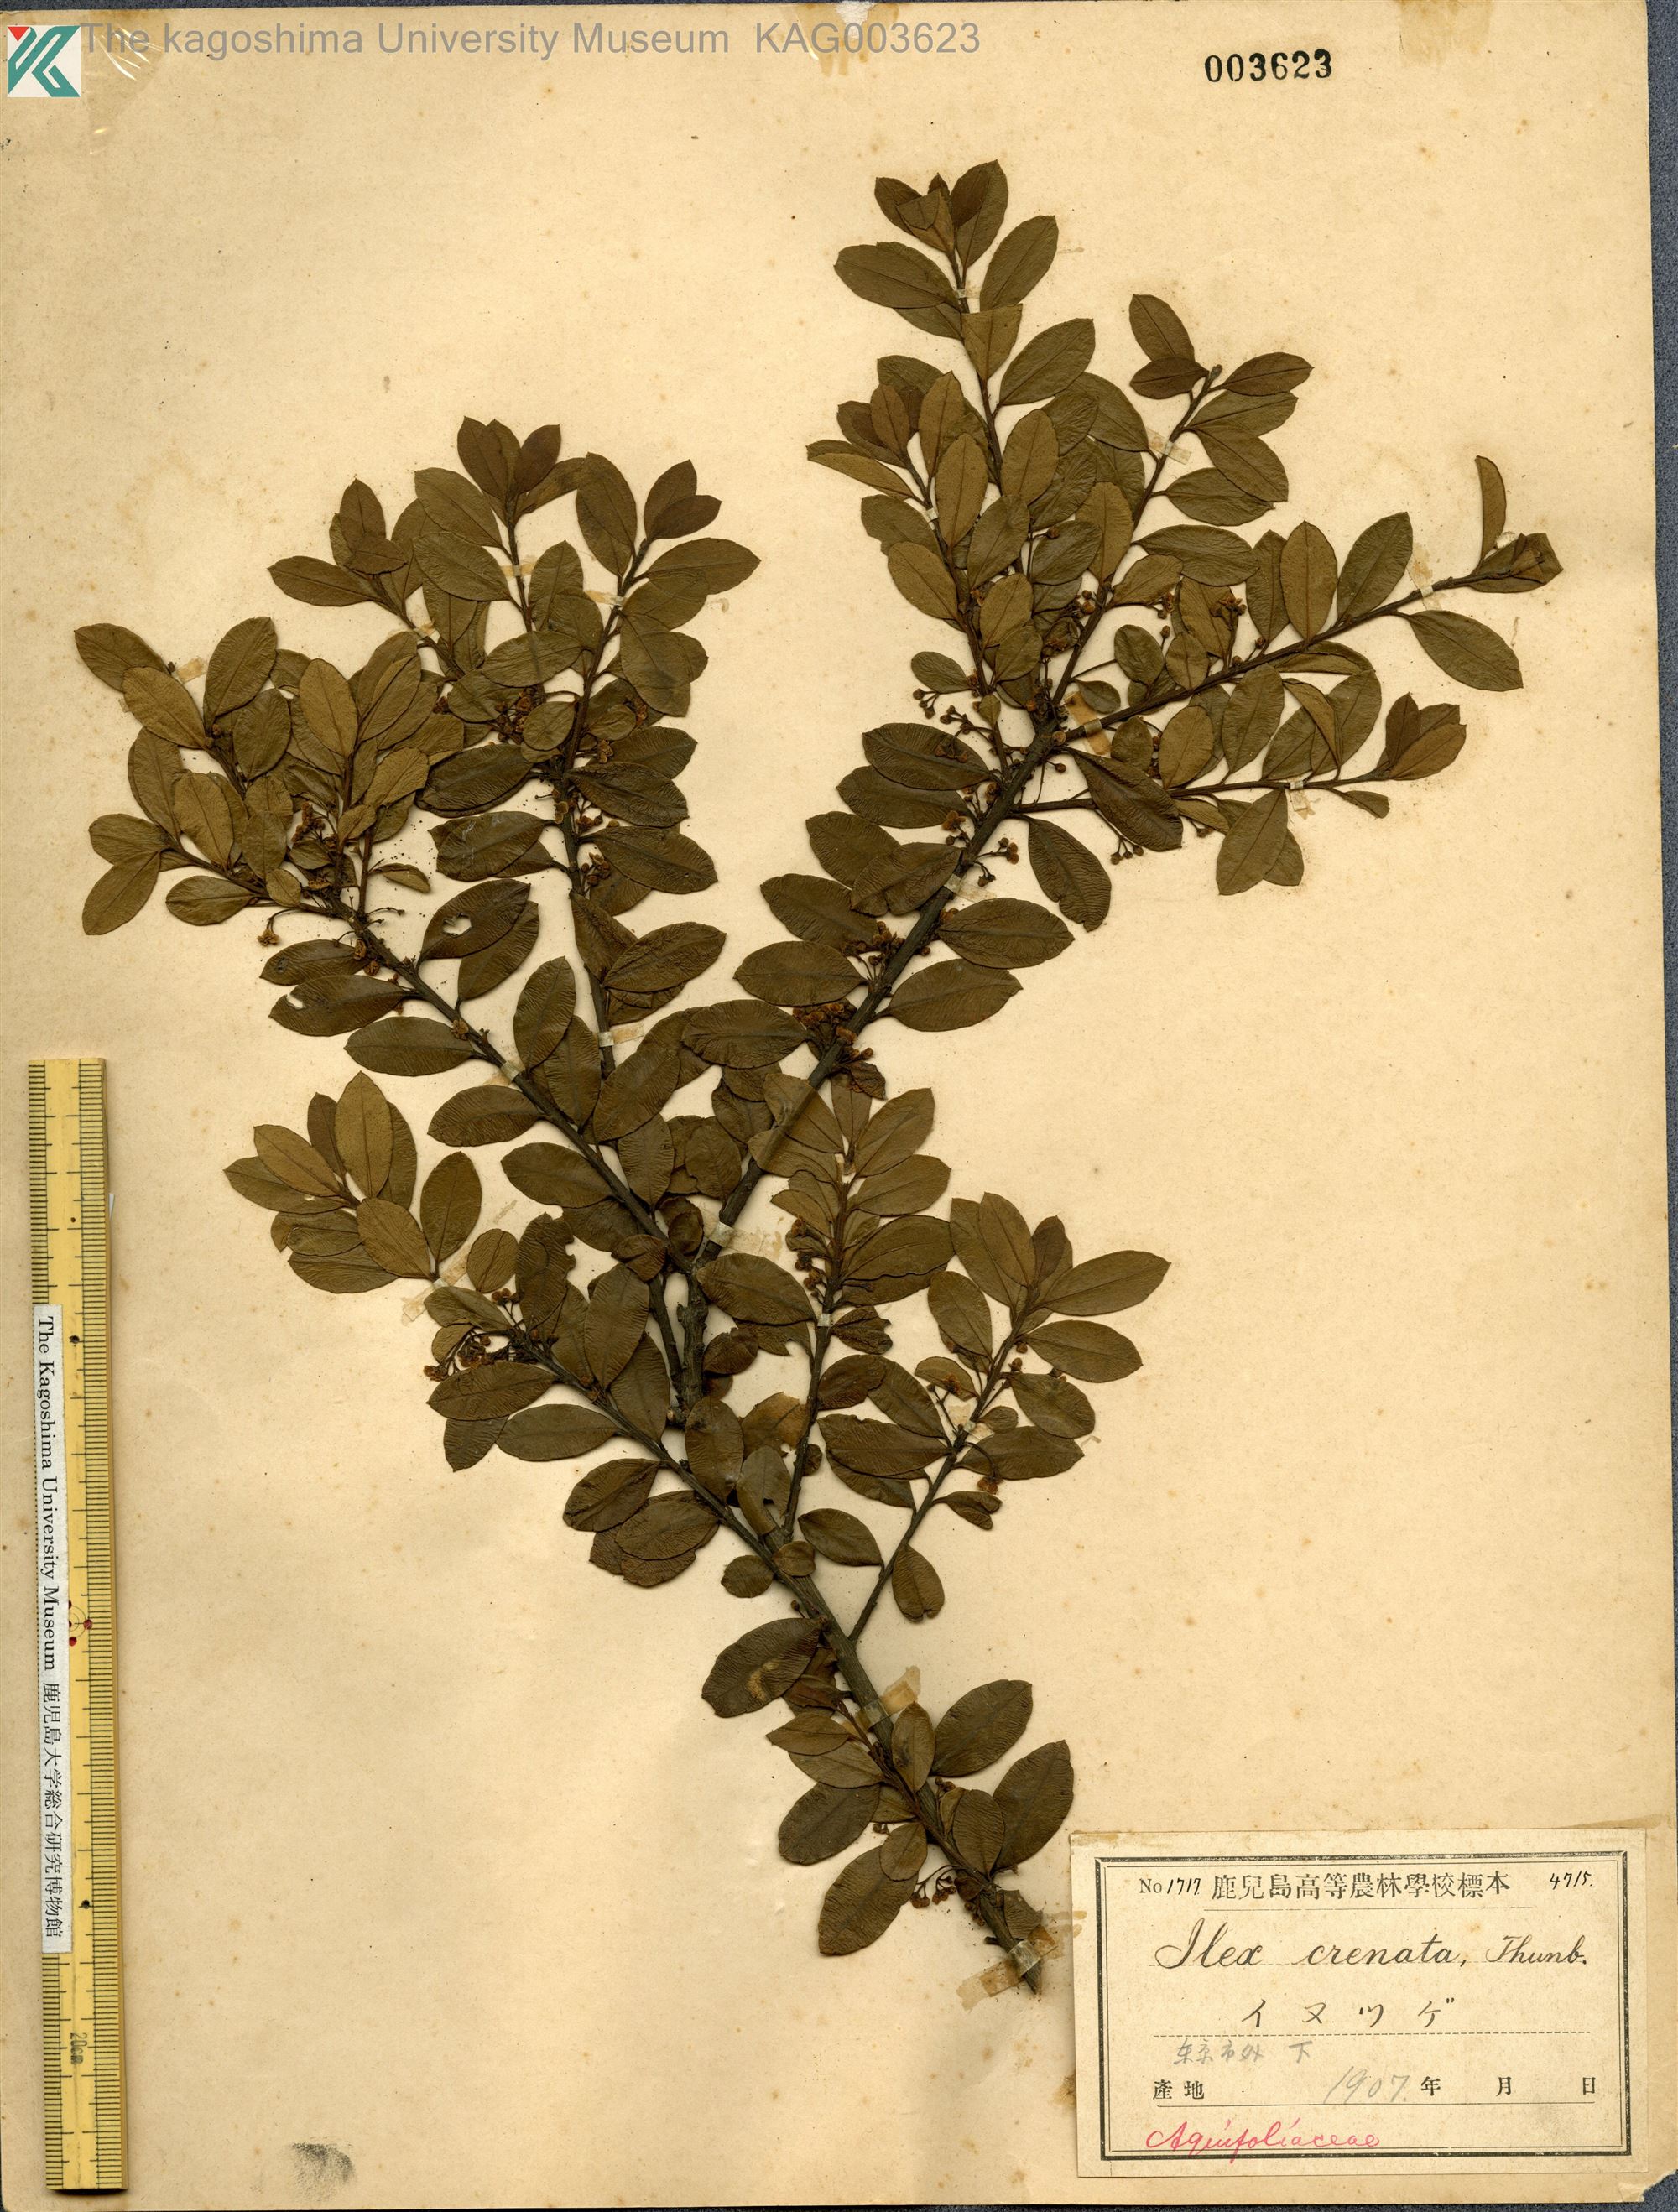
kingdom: Plantae
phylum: Tracheophyta
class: Magnoliopsida
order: Aquifoliales
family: Aquifoliaceae
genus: Ilex
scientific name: Ilex crenata
